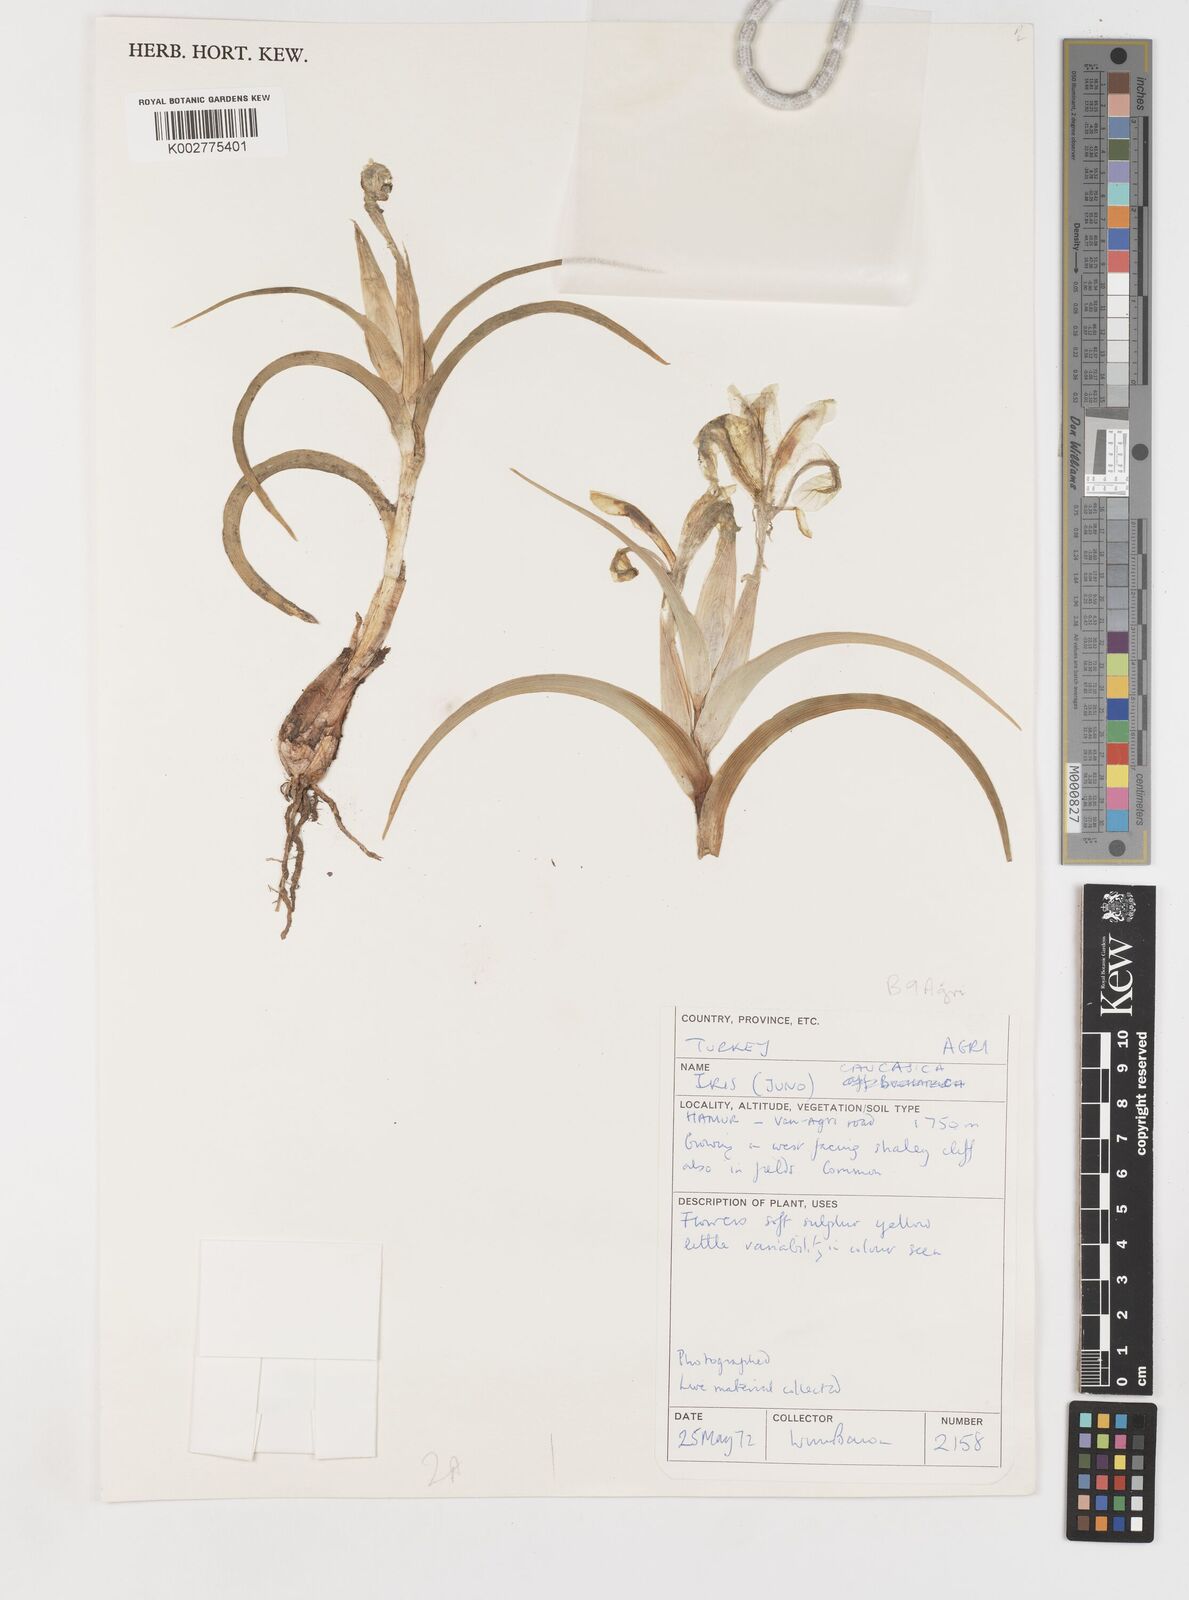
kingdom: Plantae
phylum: Tracheophyta
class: Liliopsida
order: Asparagales
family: Iridaceae
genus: Iris
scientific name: Iris caucasica
